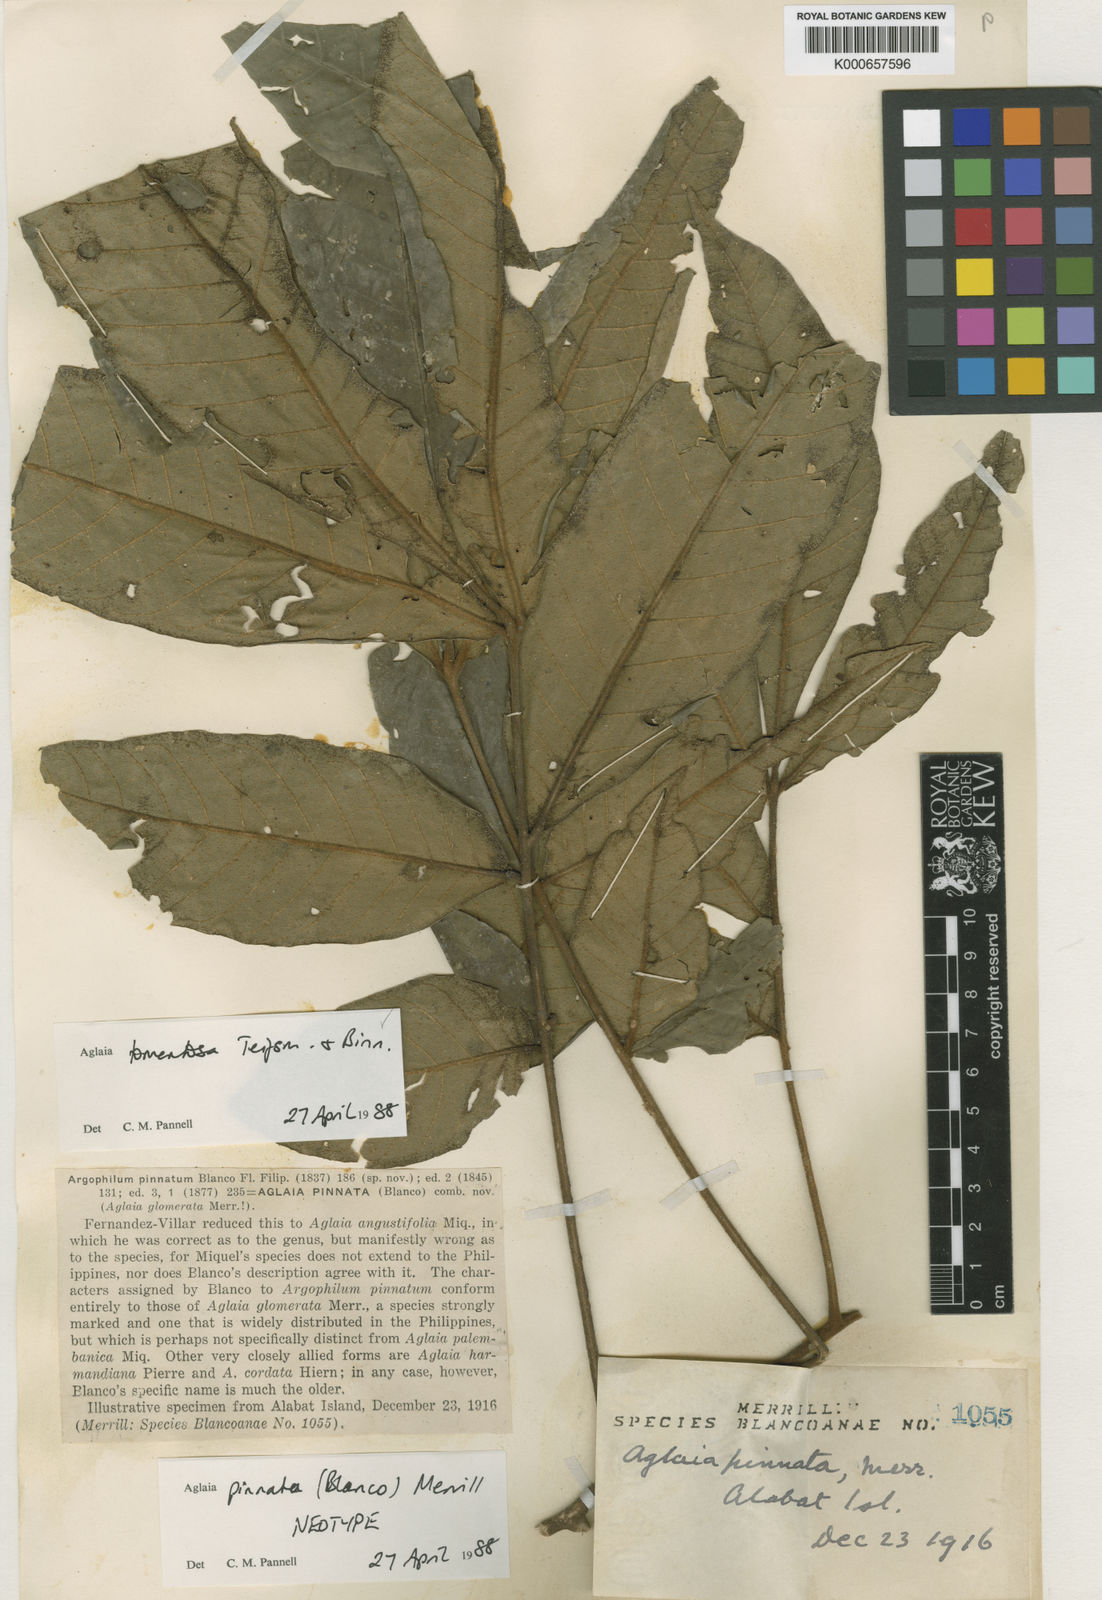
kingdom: Plantae
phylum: Tracheophyta
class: Magnoliopsida
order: Sapindales
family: Meliaceae
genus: Aglaia
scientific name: Aglaia tomentosa
